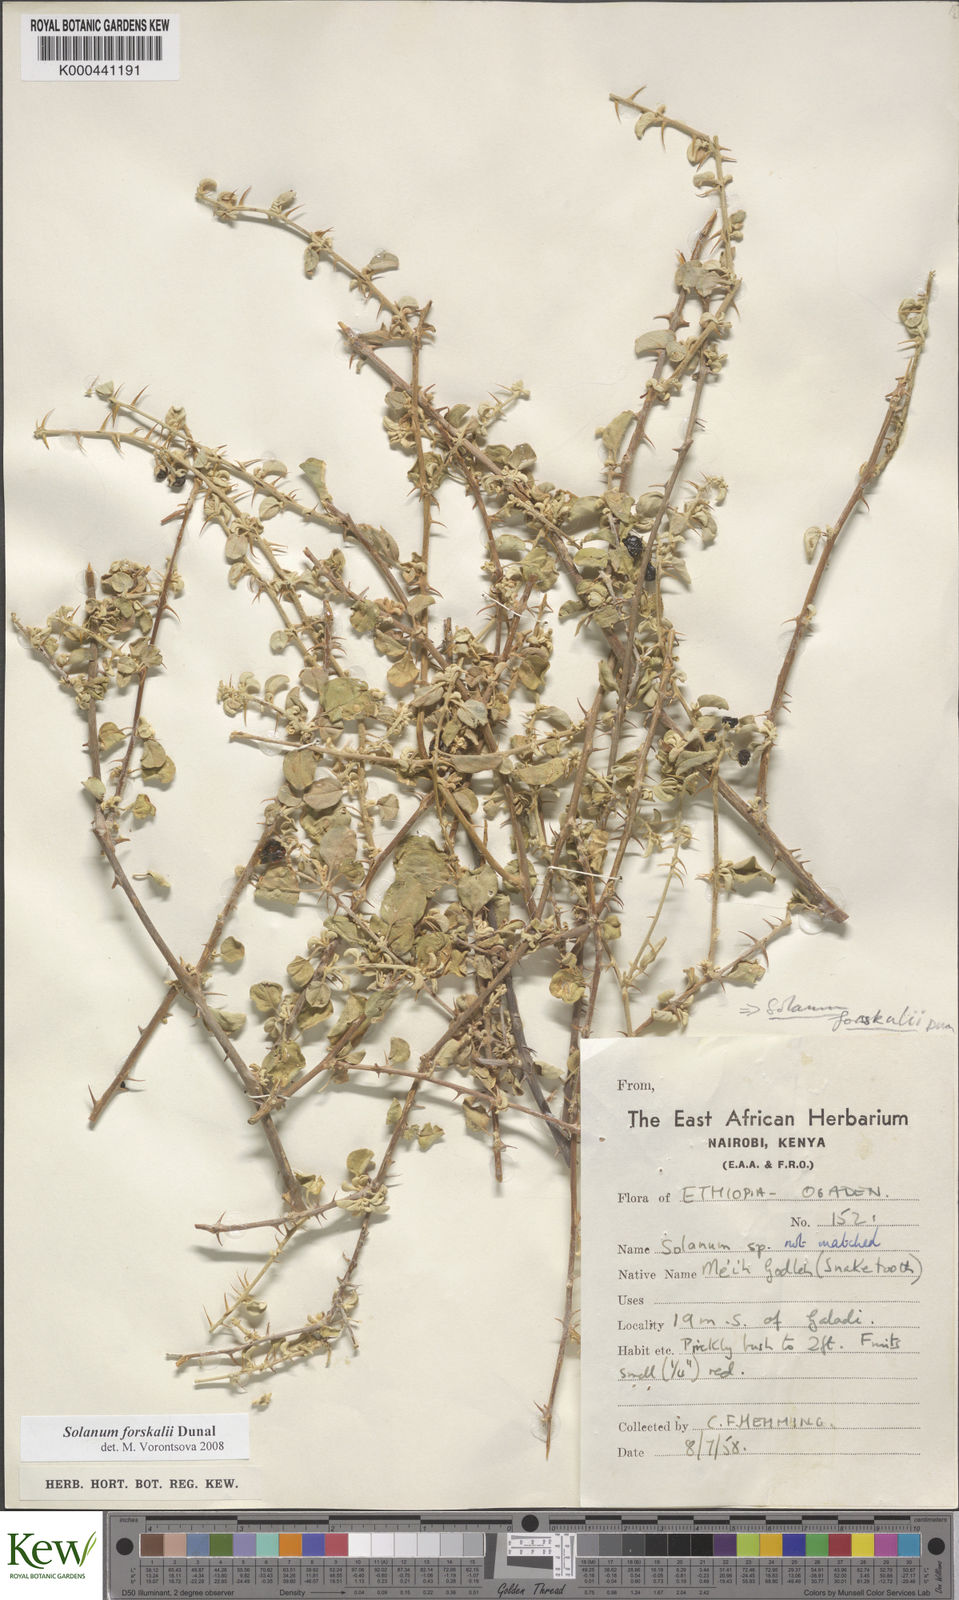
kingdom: Plantae
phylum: Tracheophyta
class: Magnoliopsida
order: Solanales
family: Solanaceae
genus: Solanum
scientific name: Solanum
